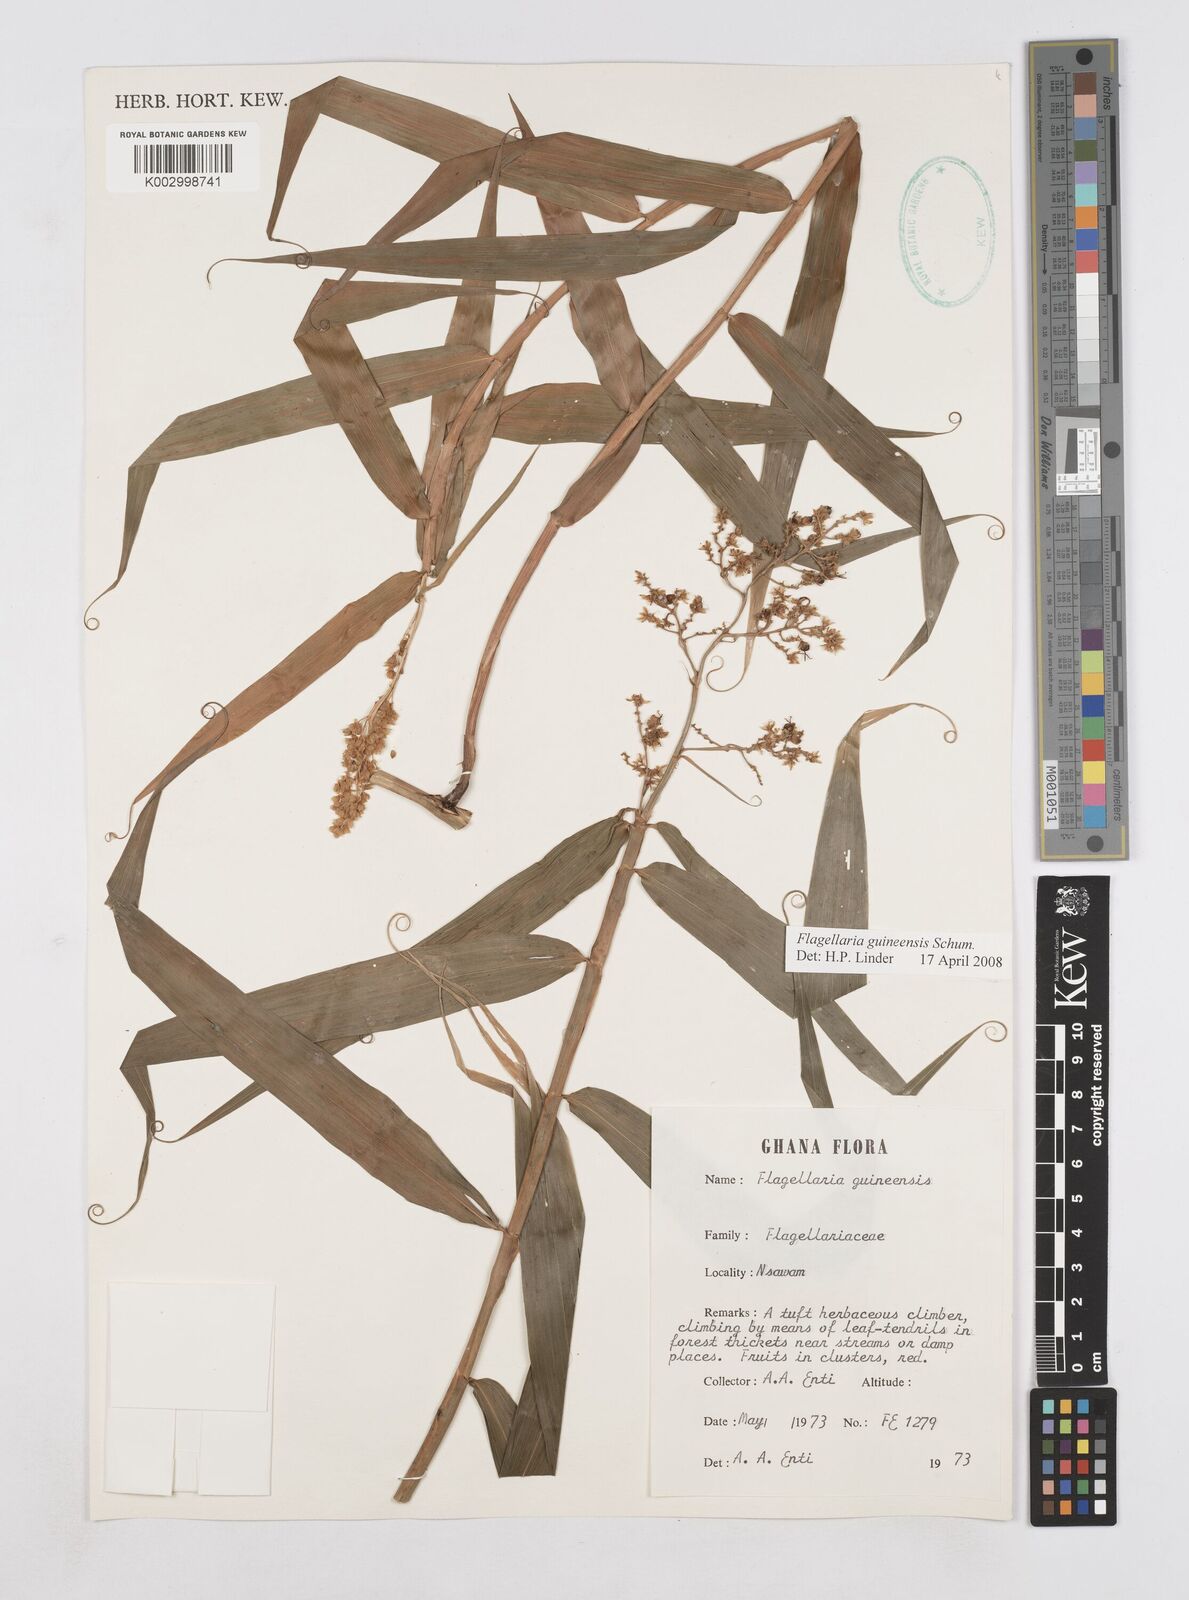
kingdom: Plantae
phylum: Tracheophyta
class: Liliopsida
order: Poales
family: Flagellariaceae
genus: Flagellaria
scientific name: Flagellaria guineensis
